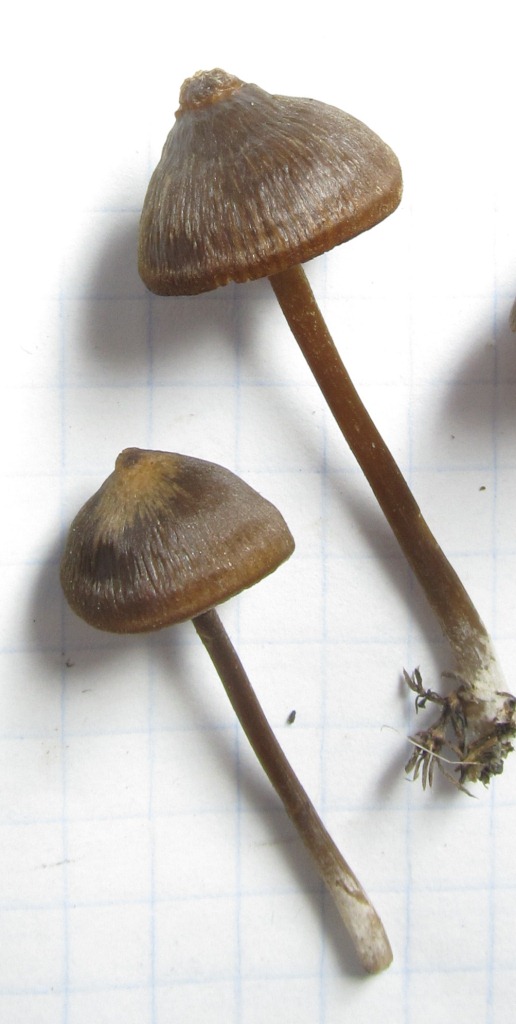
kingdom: Fungi
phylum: Basidiomycota
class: Agaricomycetes
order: Agaricales
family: Entolomataceae
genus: Entoloma
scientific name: Entoloma clandestinum
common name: tykbladet rødblad
